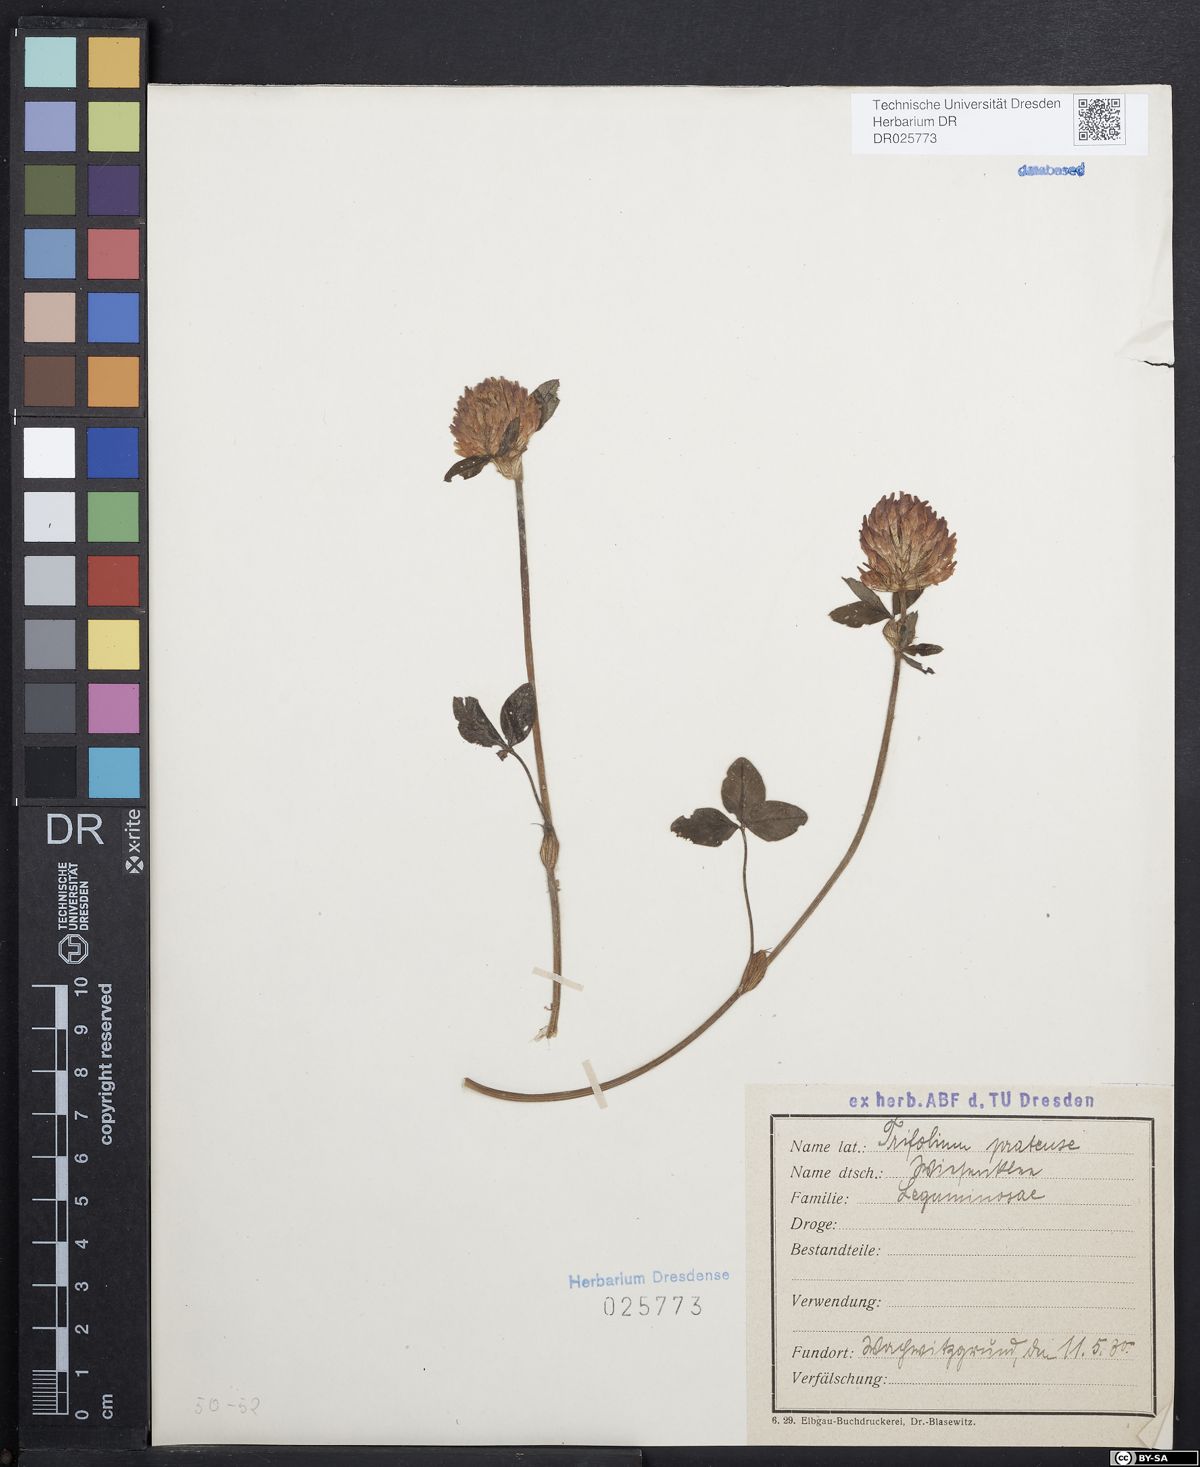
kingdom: Plantae
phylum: Tracheophyta
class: Magnoliopsida
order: Fabales
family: Fabaceae
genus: Trifolium
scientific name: Trifolium pratense
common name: Red clover
